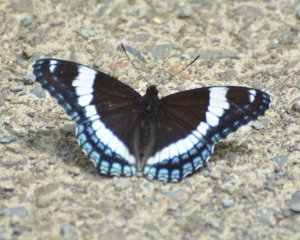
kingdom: Animalia
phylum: Arthropoda
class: Insecta
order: Lepidoptera
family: Nymphalidae
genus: Limenitis
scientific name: Limenitis arthemis
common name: Red-spotted Admiral
